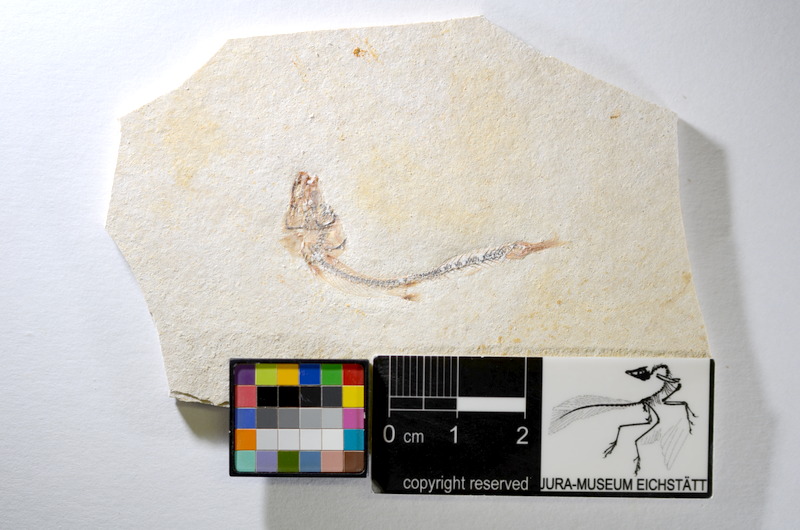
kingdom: Animalia
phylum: Chordata
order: Salmoniformes
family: Orthogonikleithridae
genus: Orthogonikleithrus
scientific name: Orthogonikleithrus hoelli
